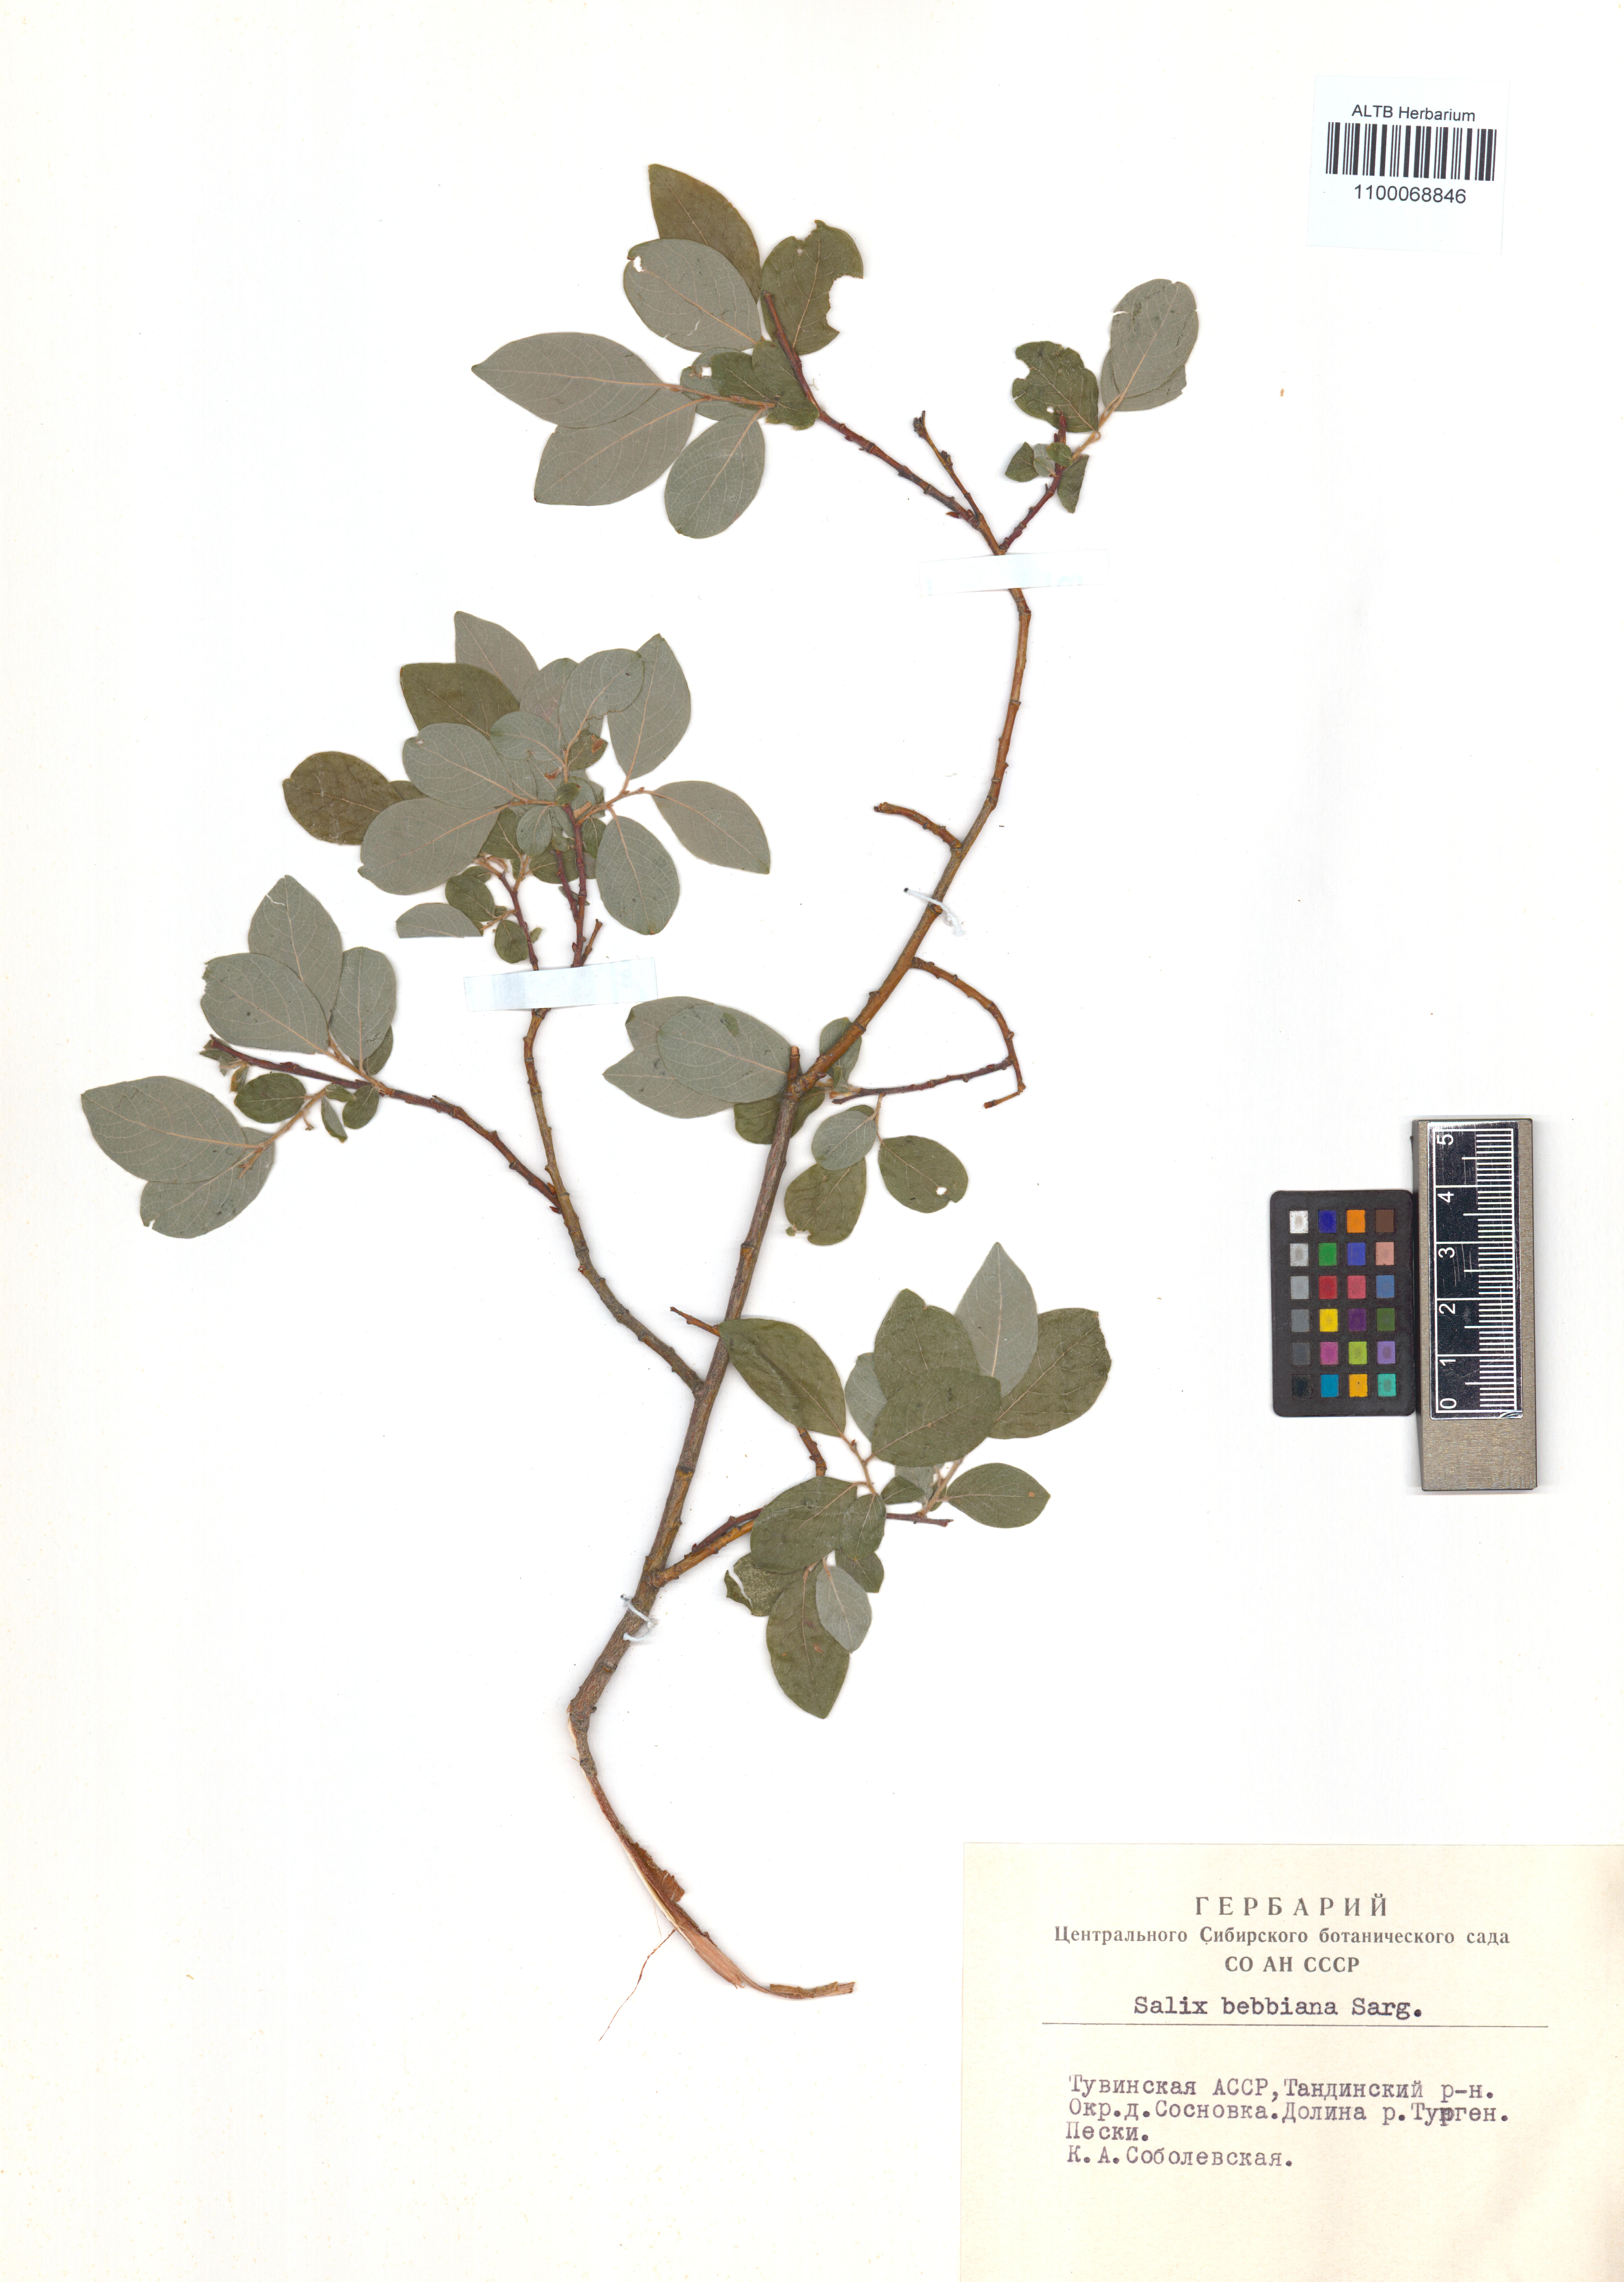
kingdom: Plantae
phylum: Tracheophyta
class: Magnoliopsida
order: Malpighiales
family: Salicaceae
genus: Salix
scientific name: Salix bebbiana
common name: Bebb's willow
